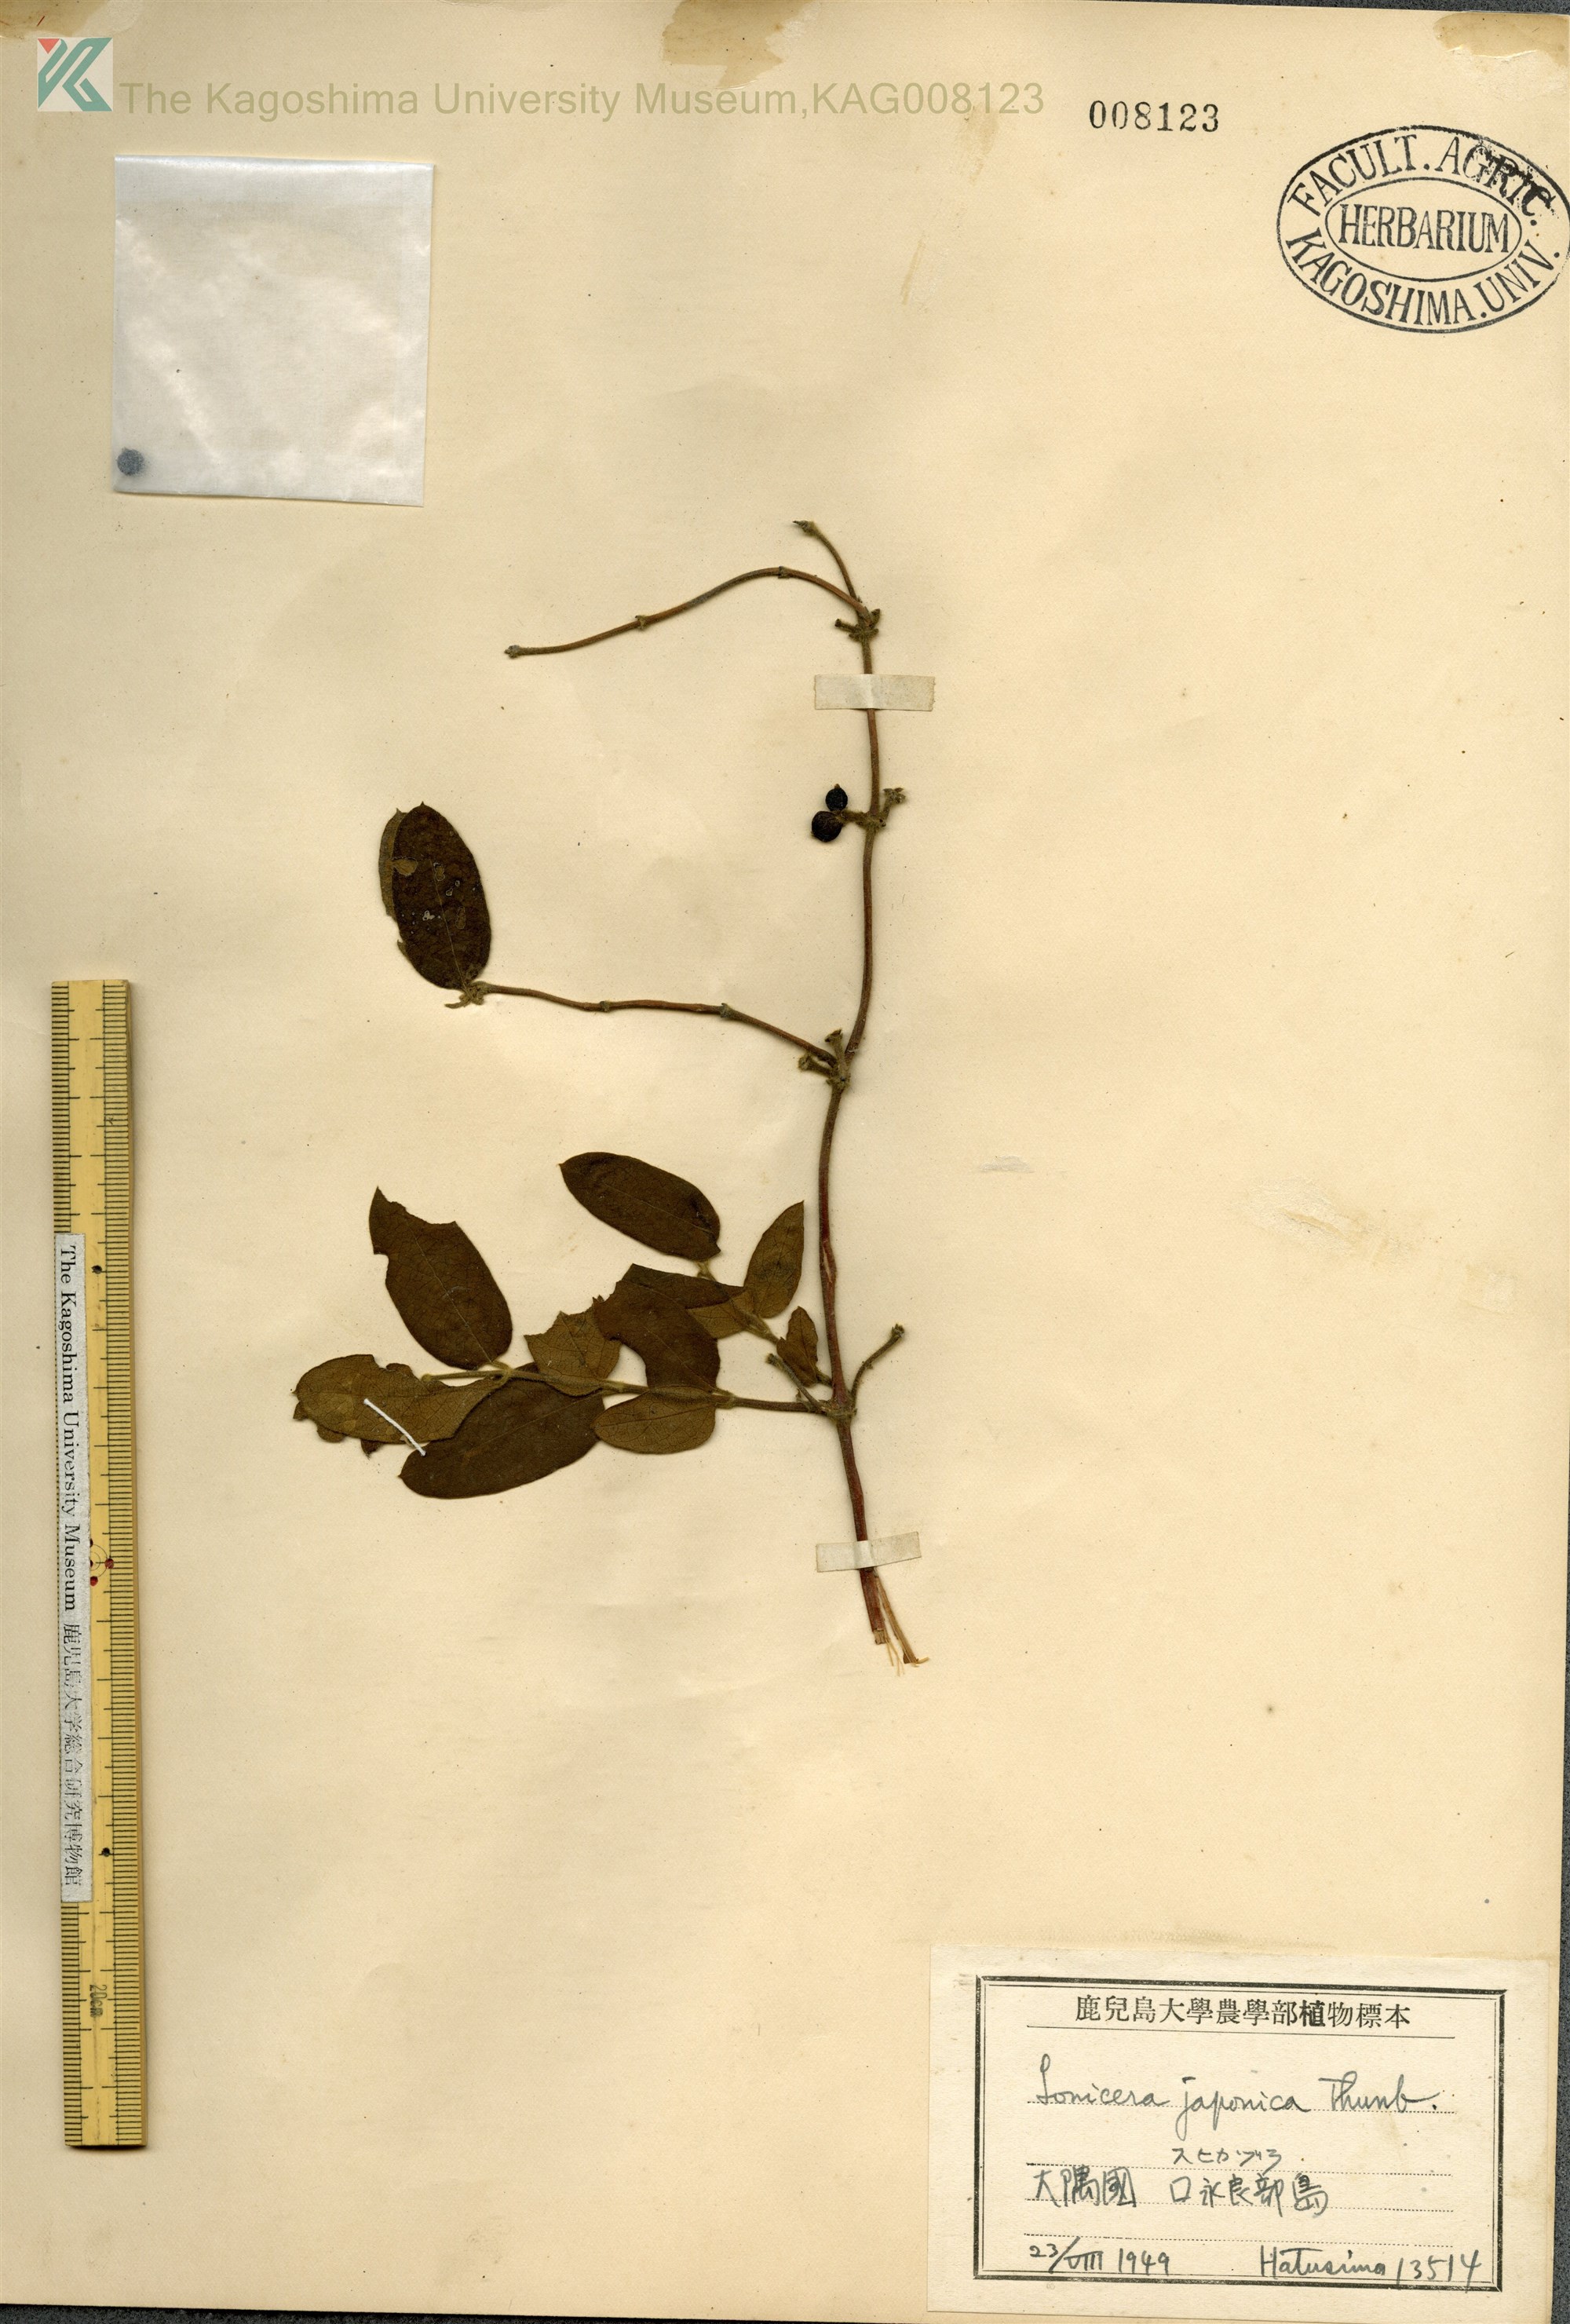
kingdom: Plantae
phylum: Tracheophyta
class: Magnoliopsida
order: Dipsacales
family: Caprifoliaceae
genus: Lonicera
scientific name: Lonicera japonica
